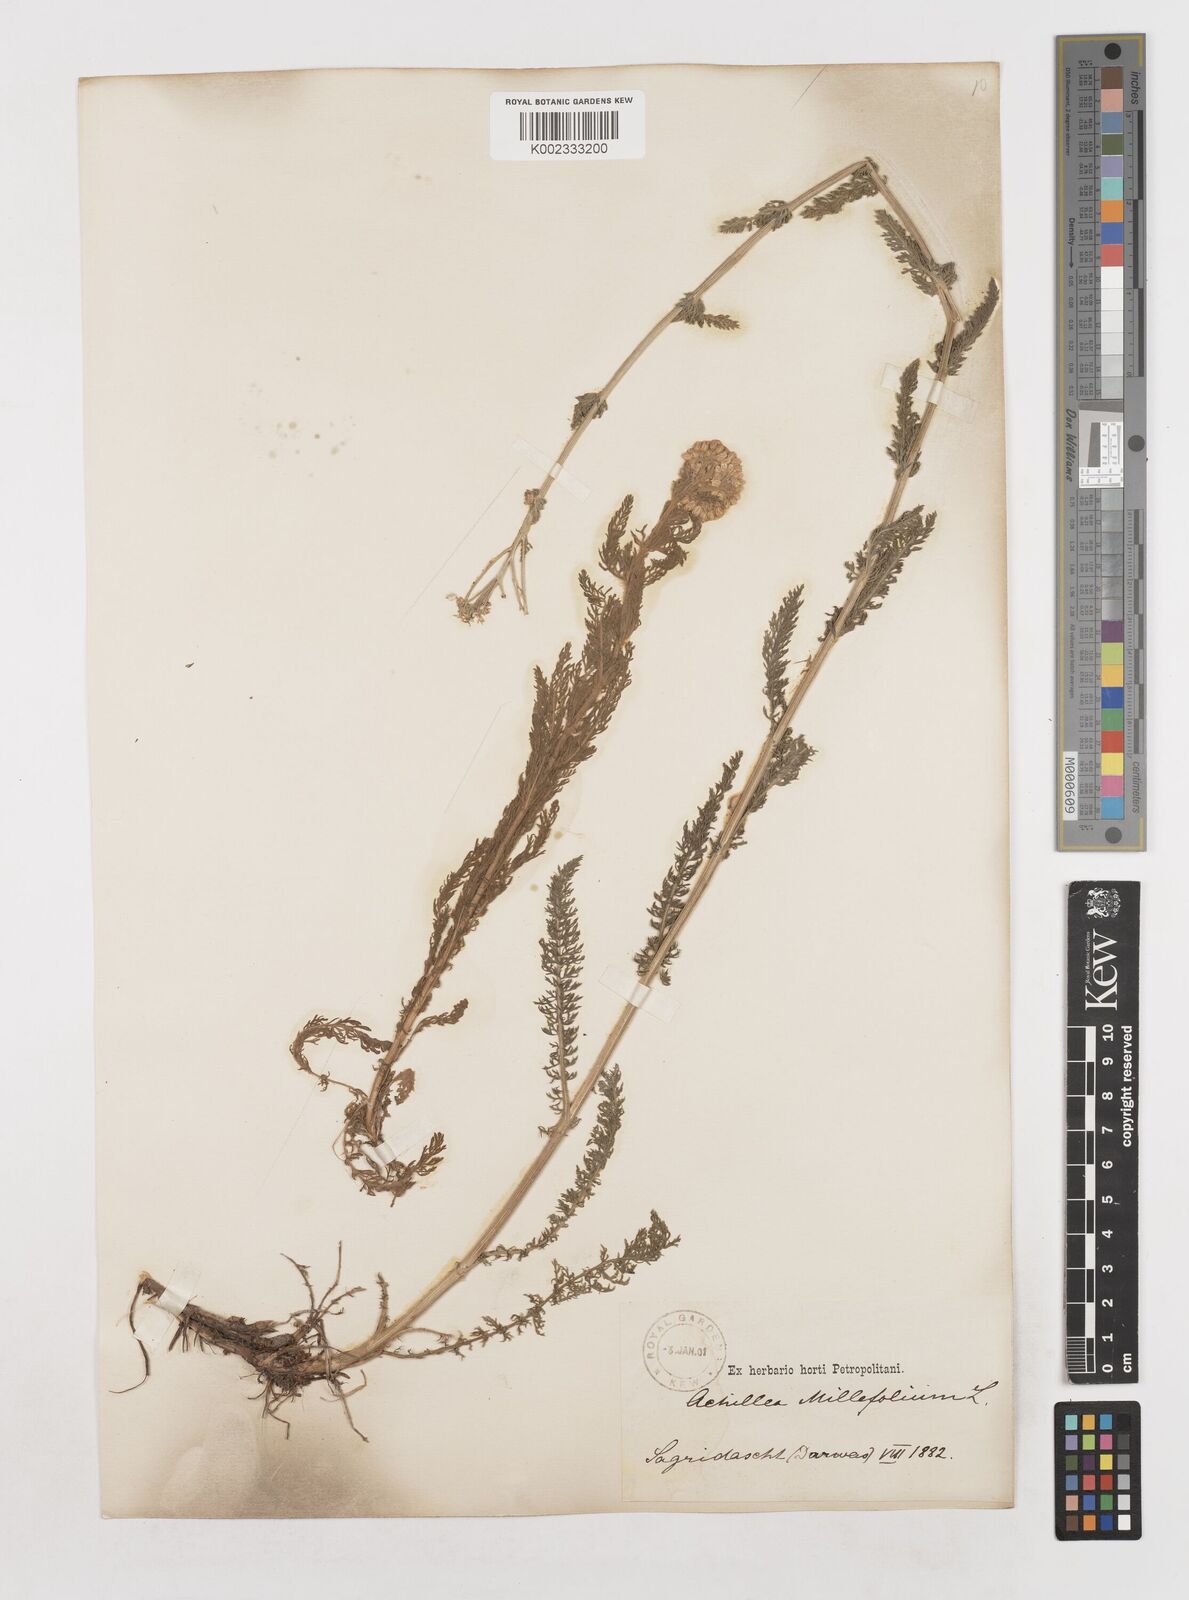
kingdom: Plantae
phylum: Tracheophyta
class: Magnoliopsida
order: Asterales
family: Asteraceae
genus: Achillea
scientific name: Achillea millefolium
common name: Yarrow
